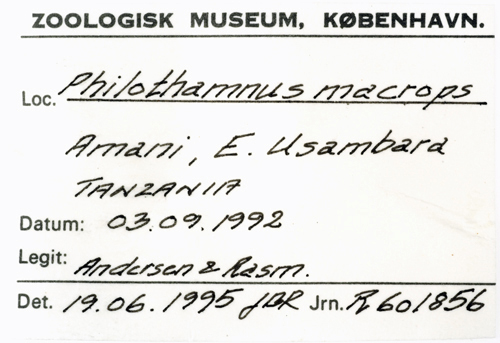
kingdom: Animalia
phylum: Chordata
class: Squamata
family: Colubridae
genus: Philothamnus
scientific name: Philothamnus macrops
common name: Large-eyed green snake
